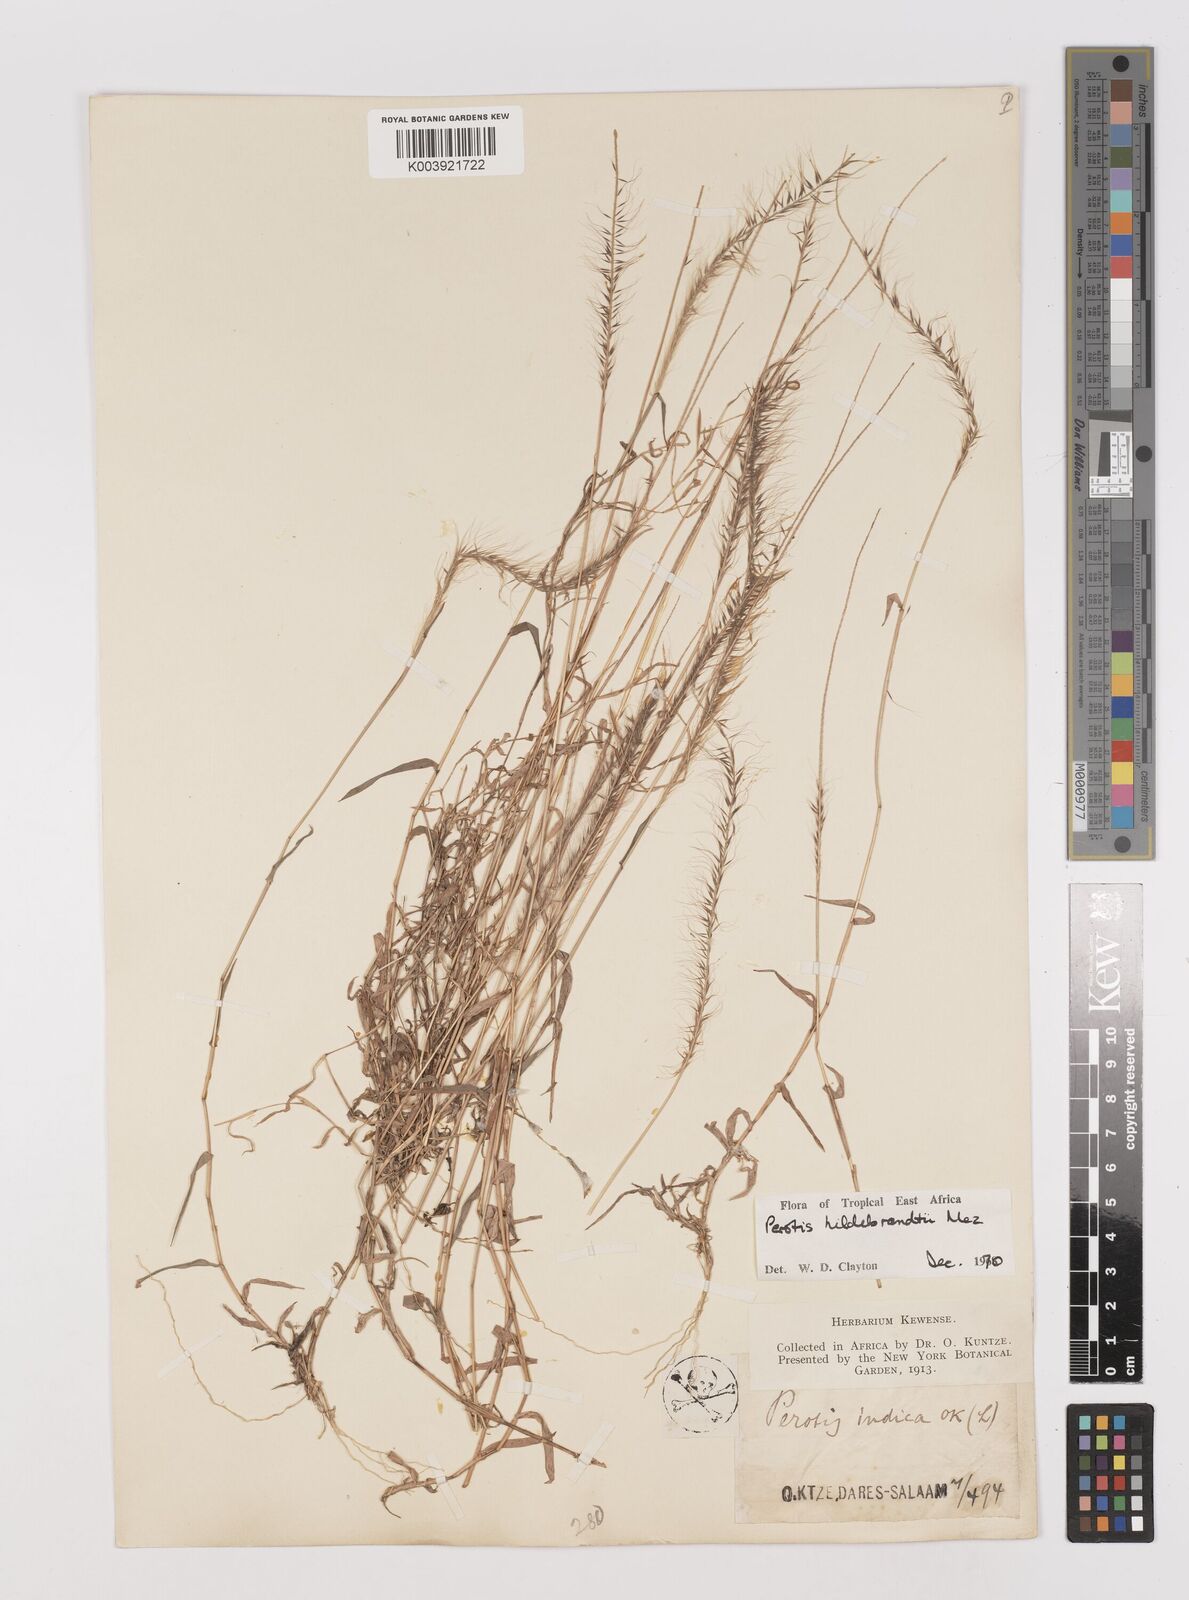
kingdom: Plantae
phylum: Tracheophyta
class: Liliopsida
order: Poales
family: Poaceae
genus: Perotis
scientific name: Perotis hildebrandtii
